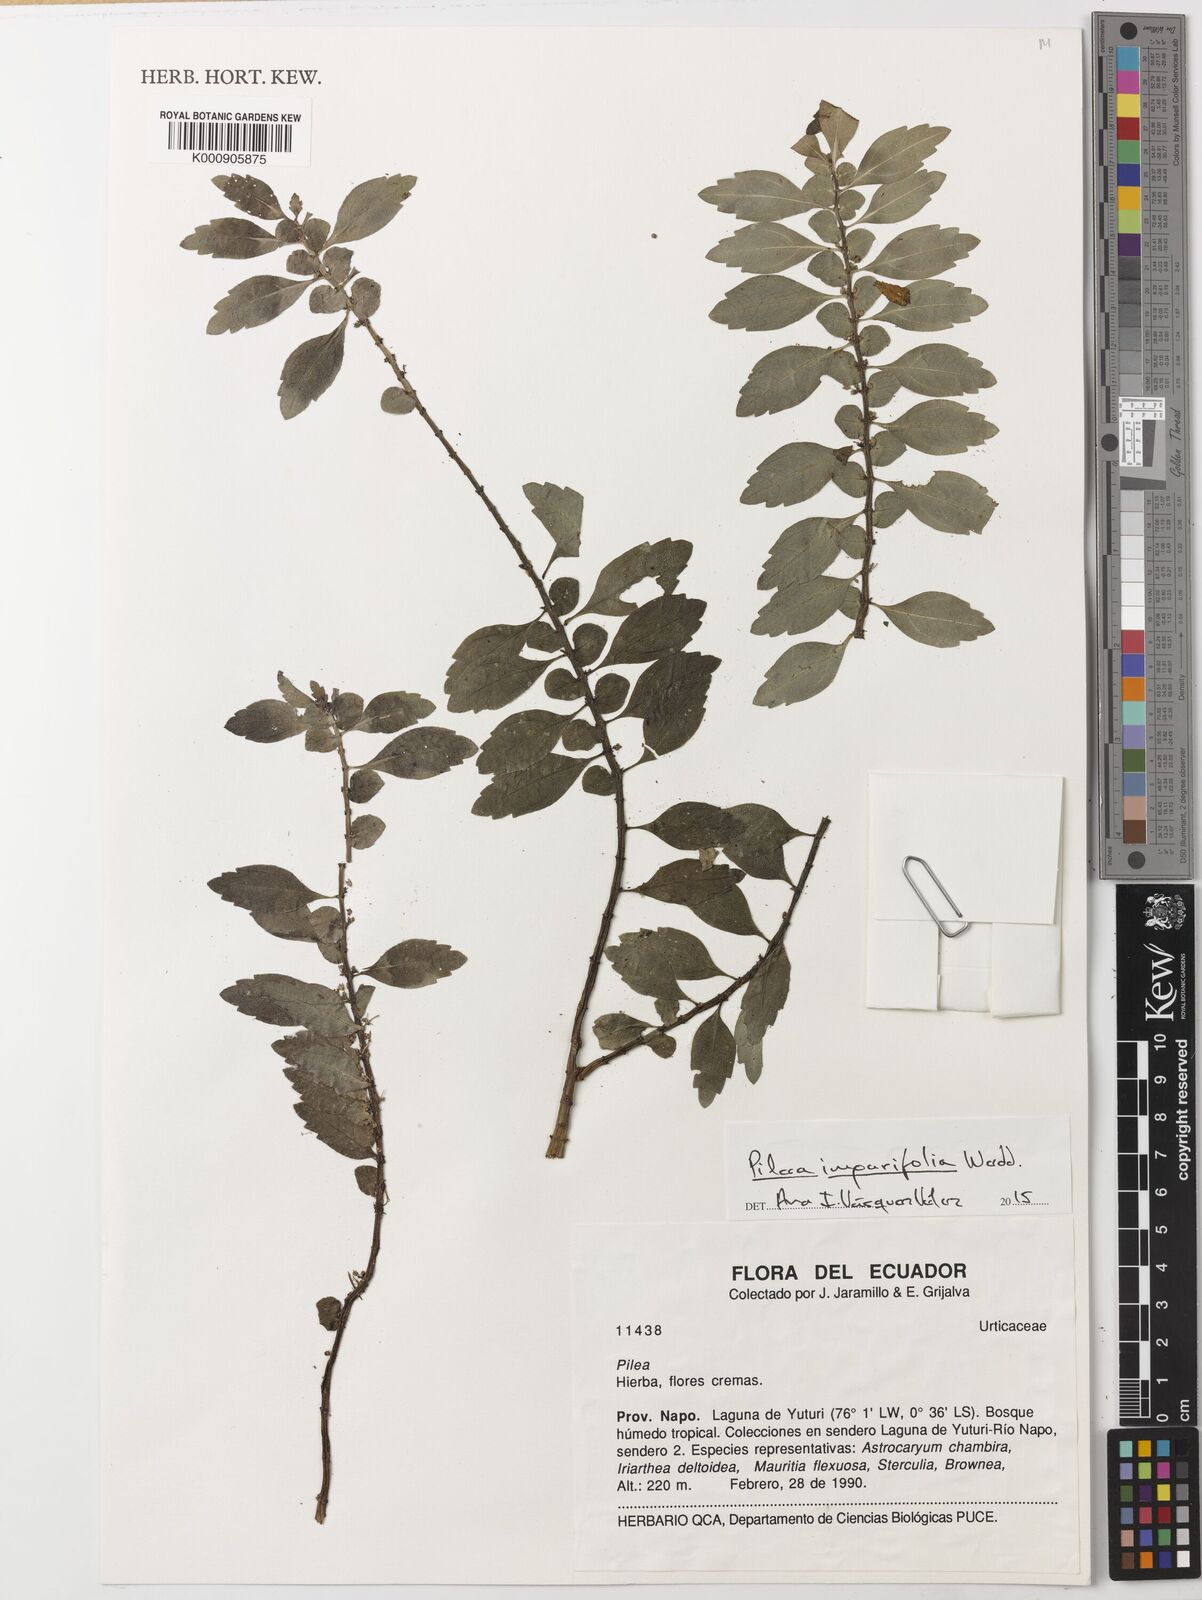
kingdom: Plantae
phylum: Tracheophyta
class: Magnoliopsida
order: Rosales
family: Urticaceae
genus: Pilea
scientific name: Pilea imparifolia
